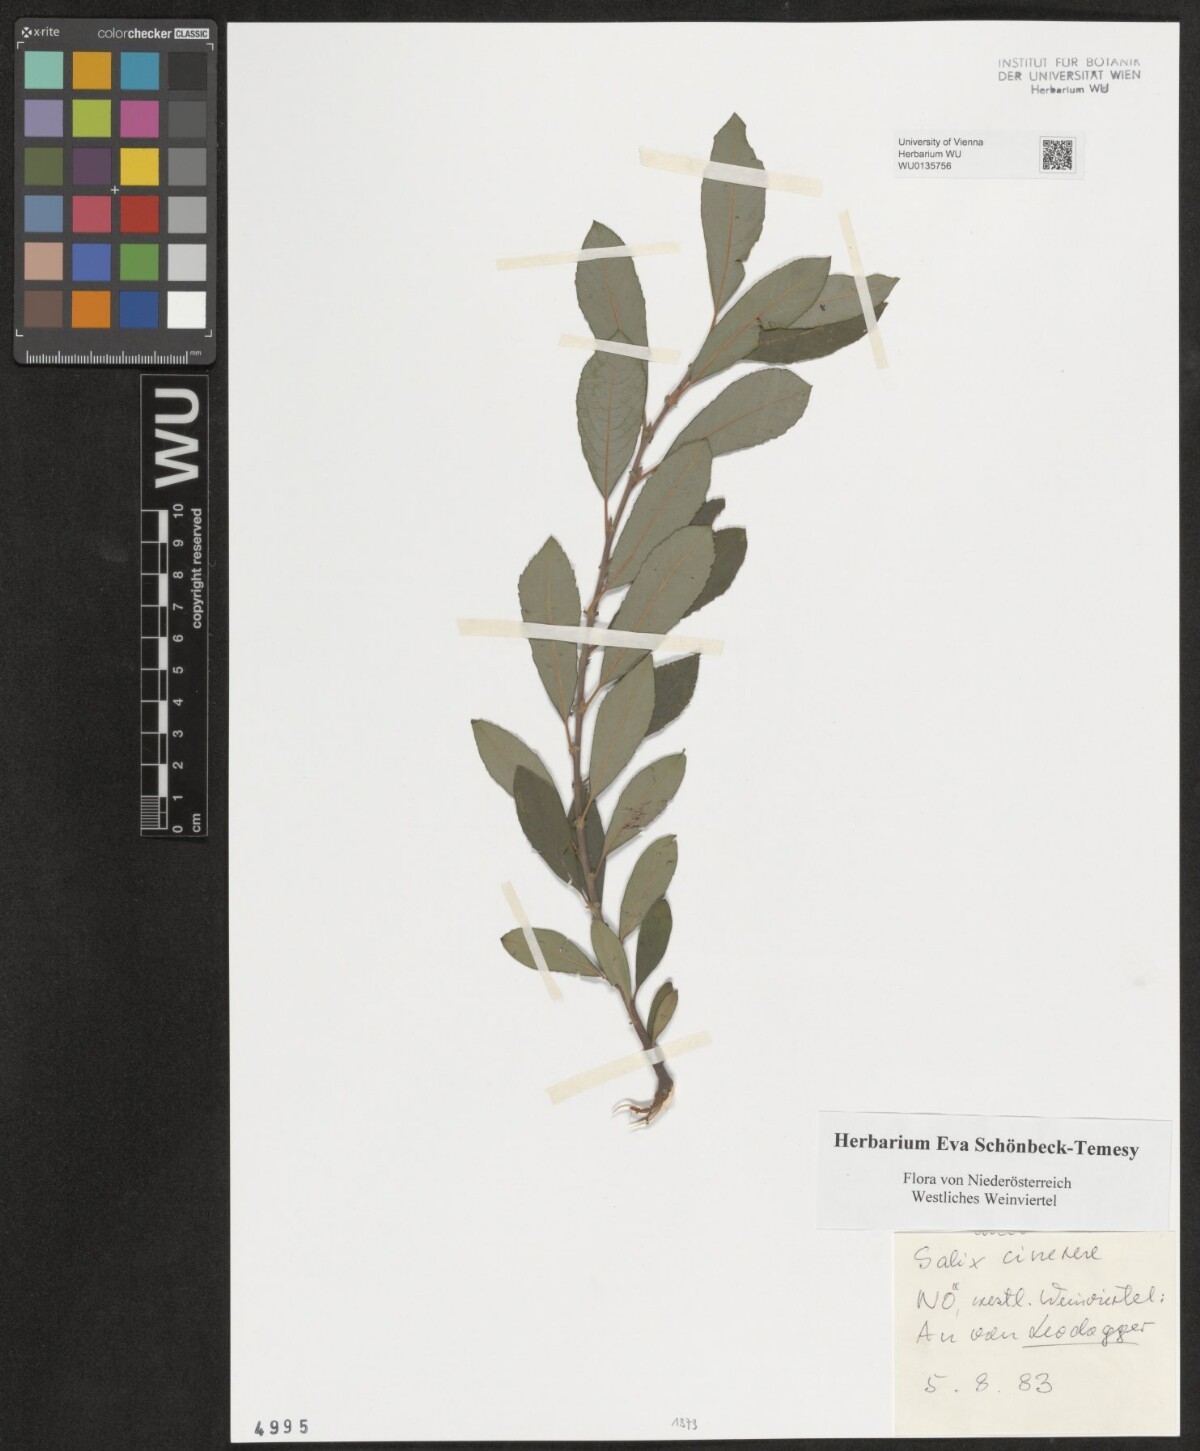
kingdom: Plantae
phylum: Tracheophyta
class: Magnoliopsida
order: Malpighiales
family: Salicaceae
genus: Salix
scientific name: Salix cinerea
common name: Common sallow
